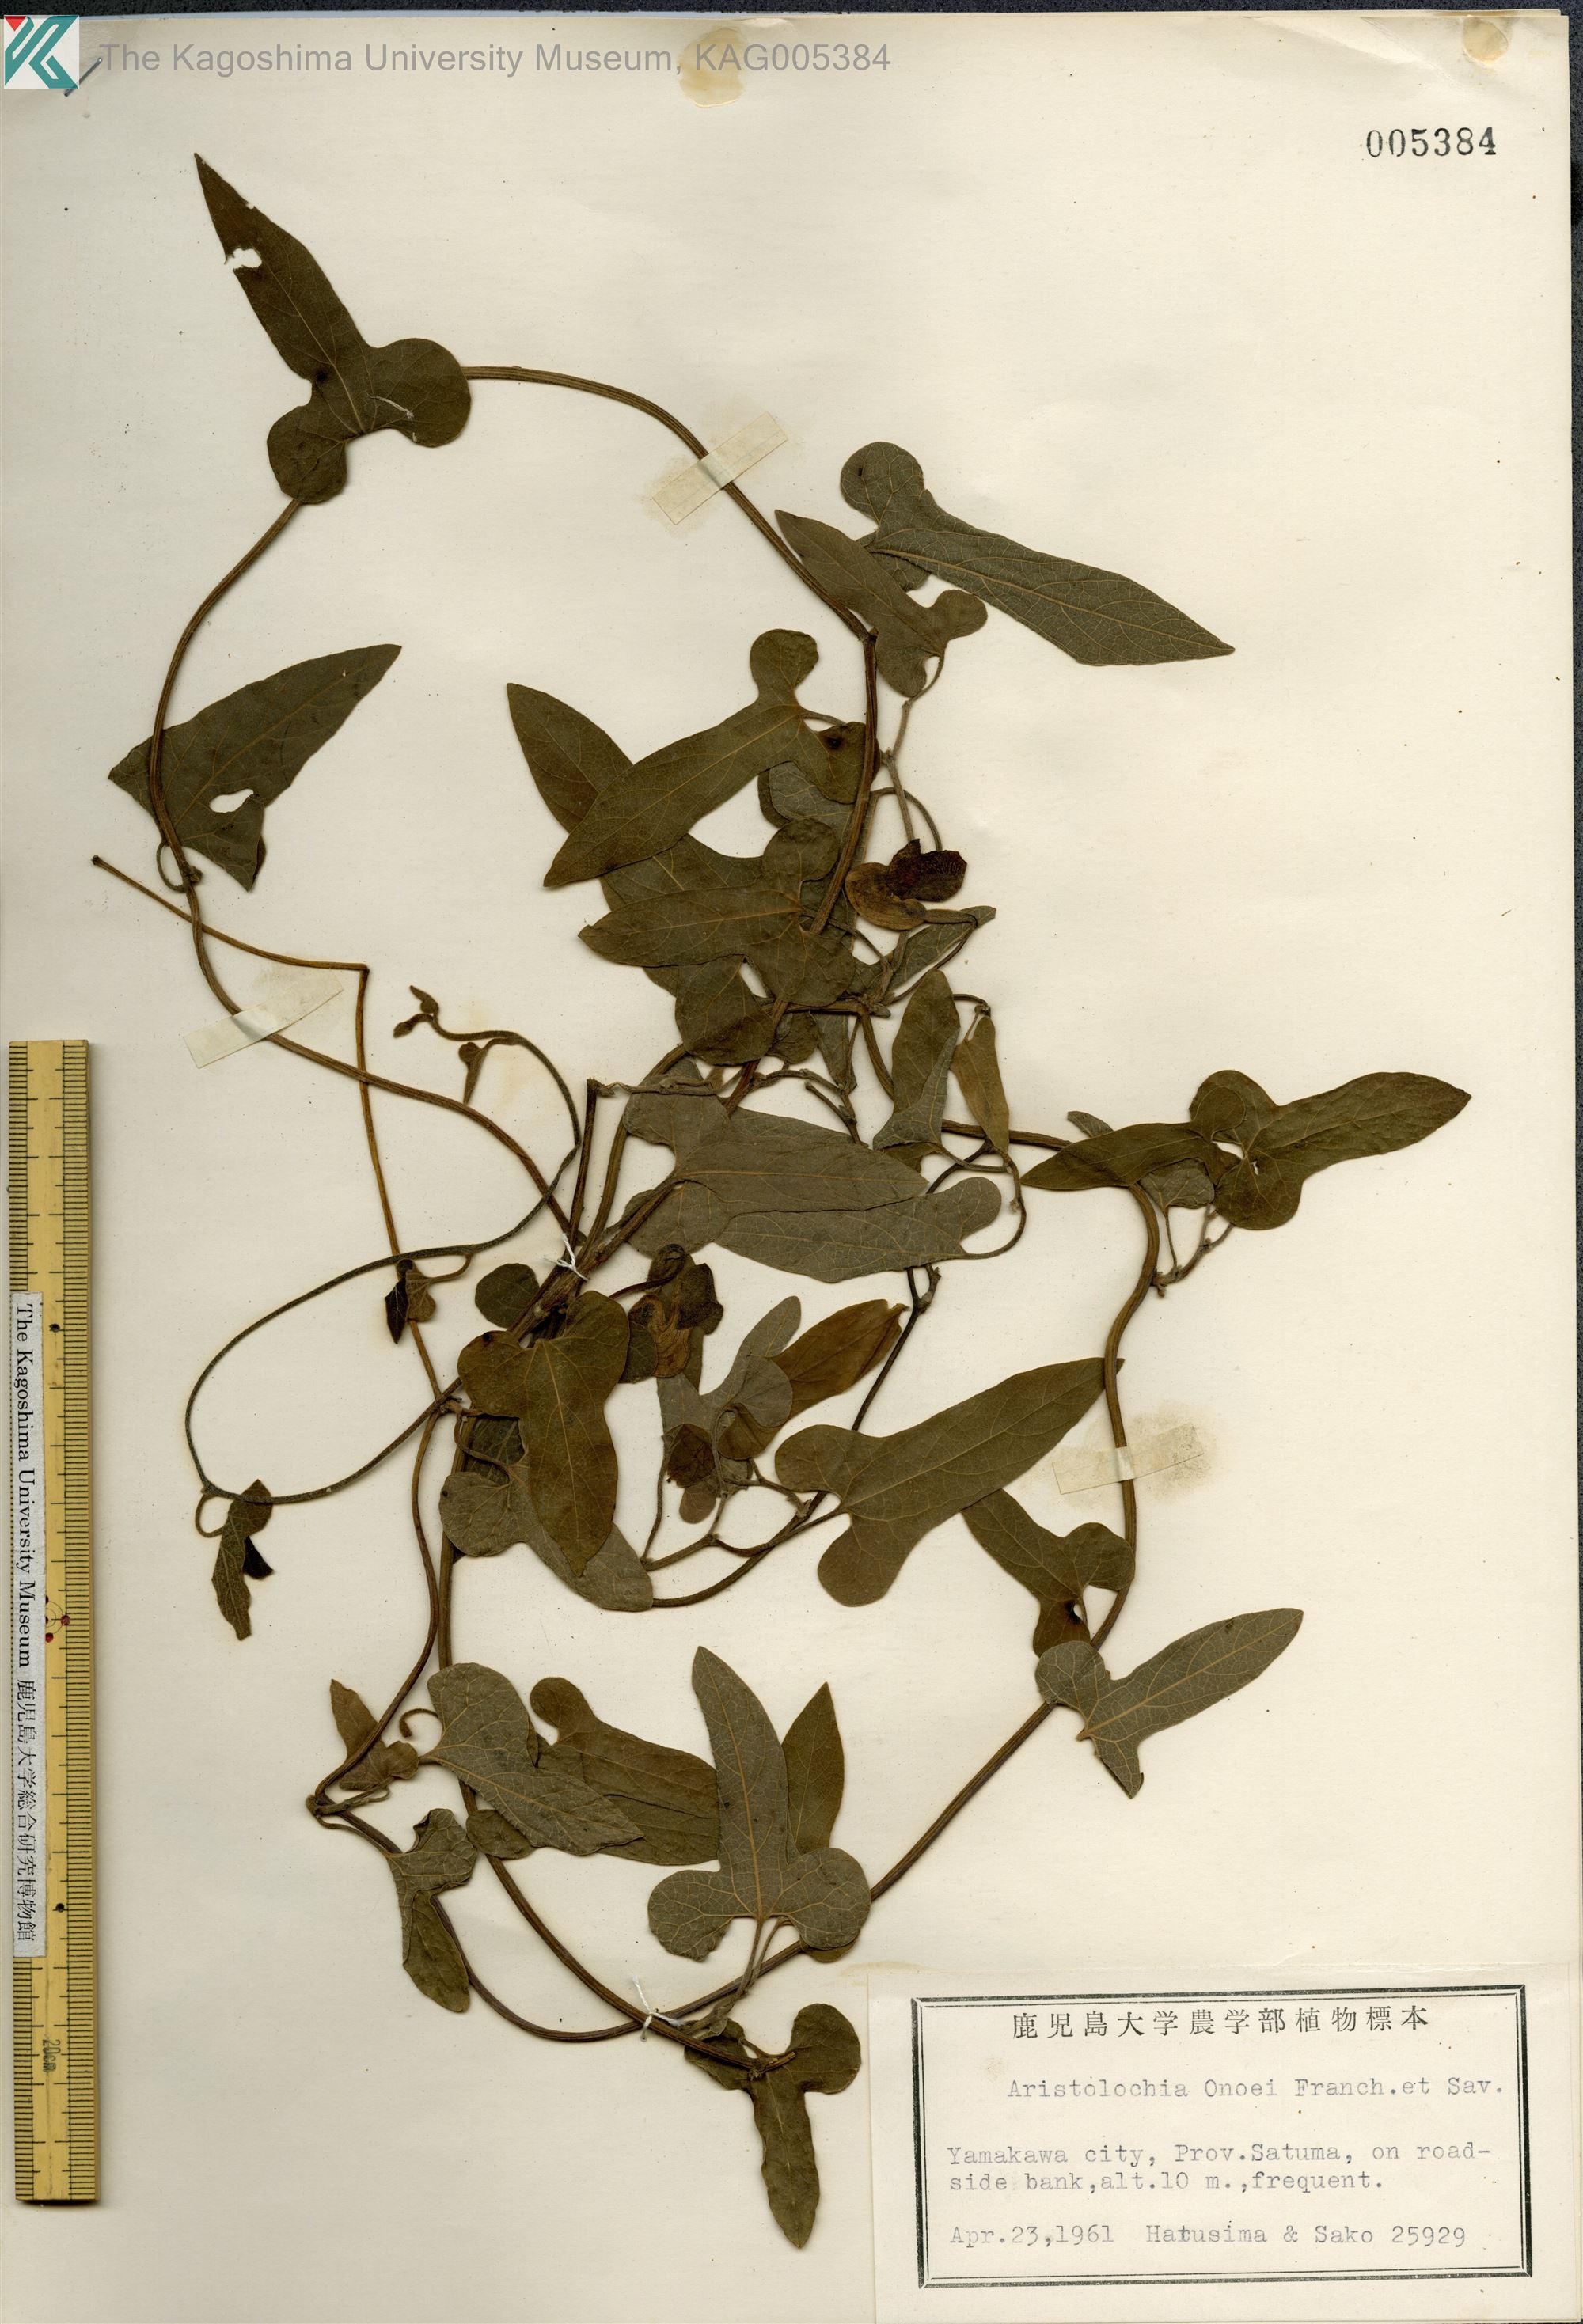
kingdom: Plantae
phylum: Tracheophyta
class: Magnoliopsida
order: Piperales
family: Aristolochiaceae
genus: Isotrema
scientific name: Isotrema kaempferi
